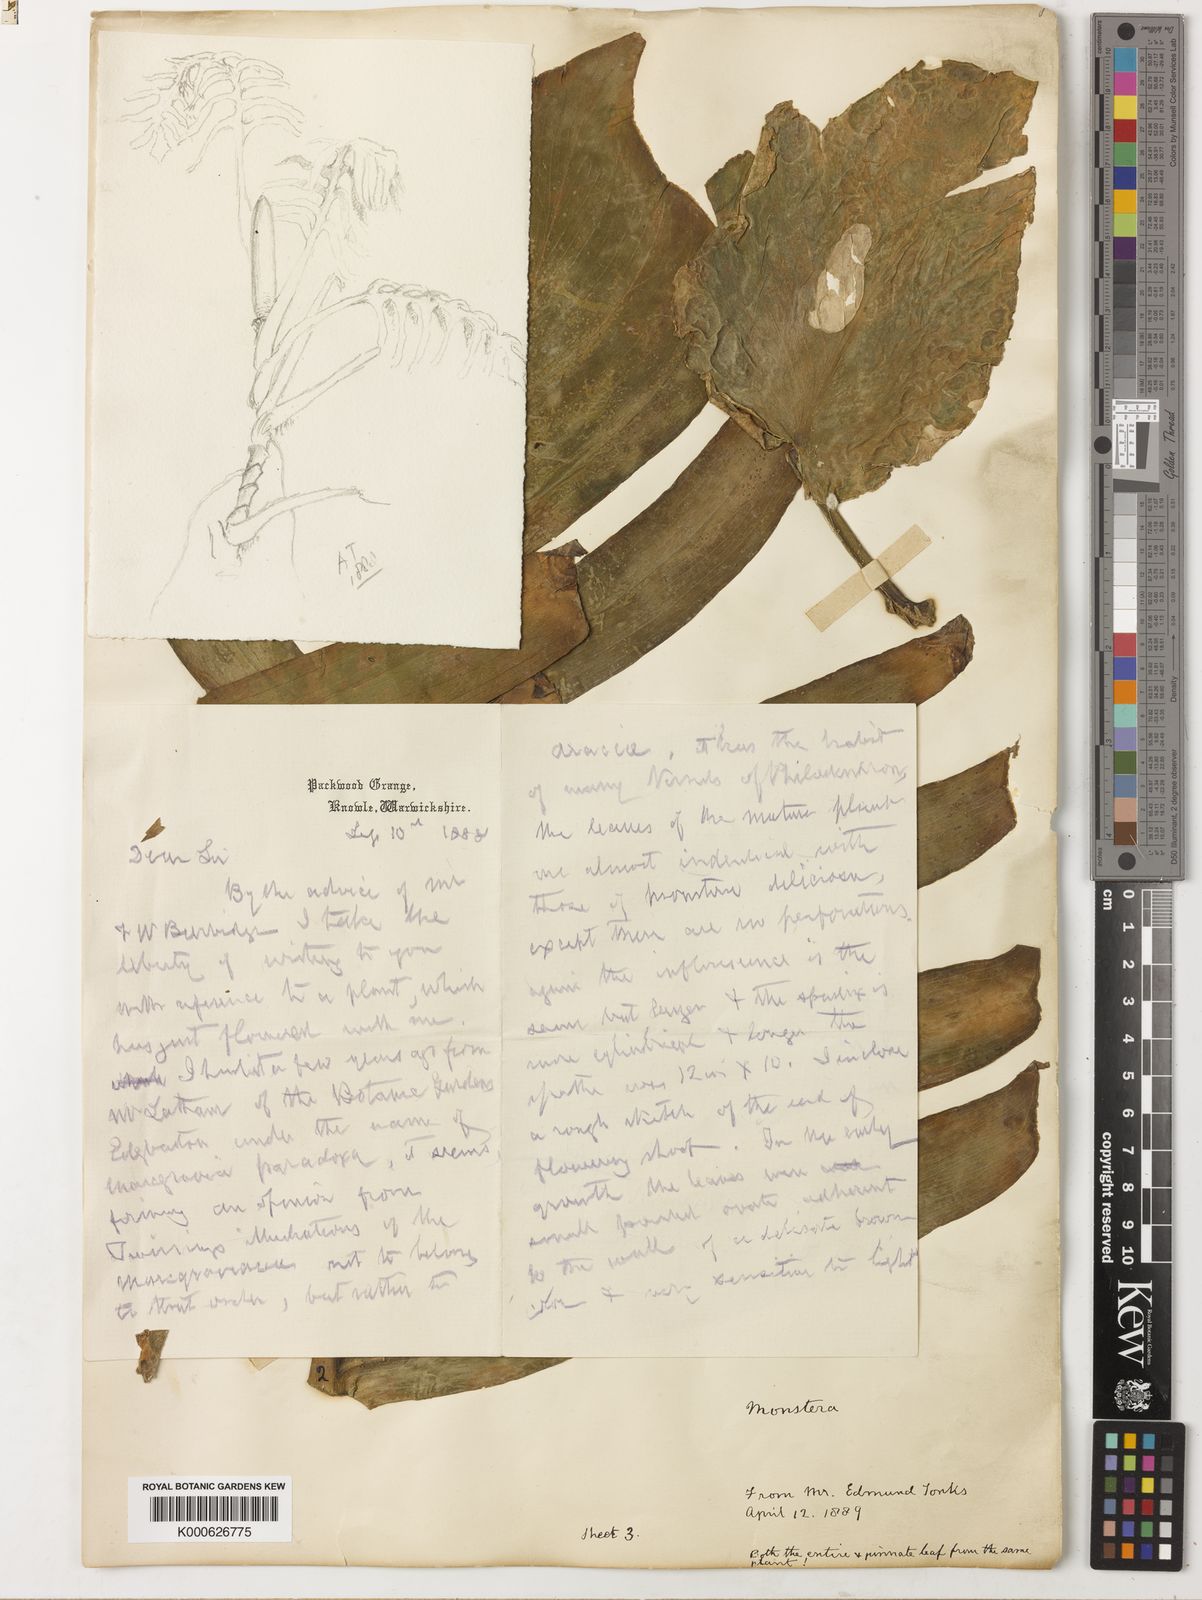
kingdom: Plantae
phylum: Tracheophyta
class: Liliopsida
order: Alismatales
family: Araceae
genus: Monstera
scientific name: Monstera tenuis
